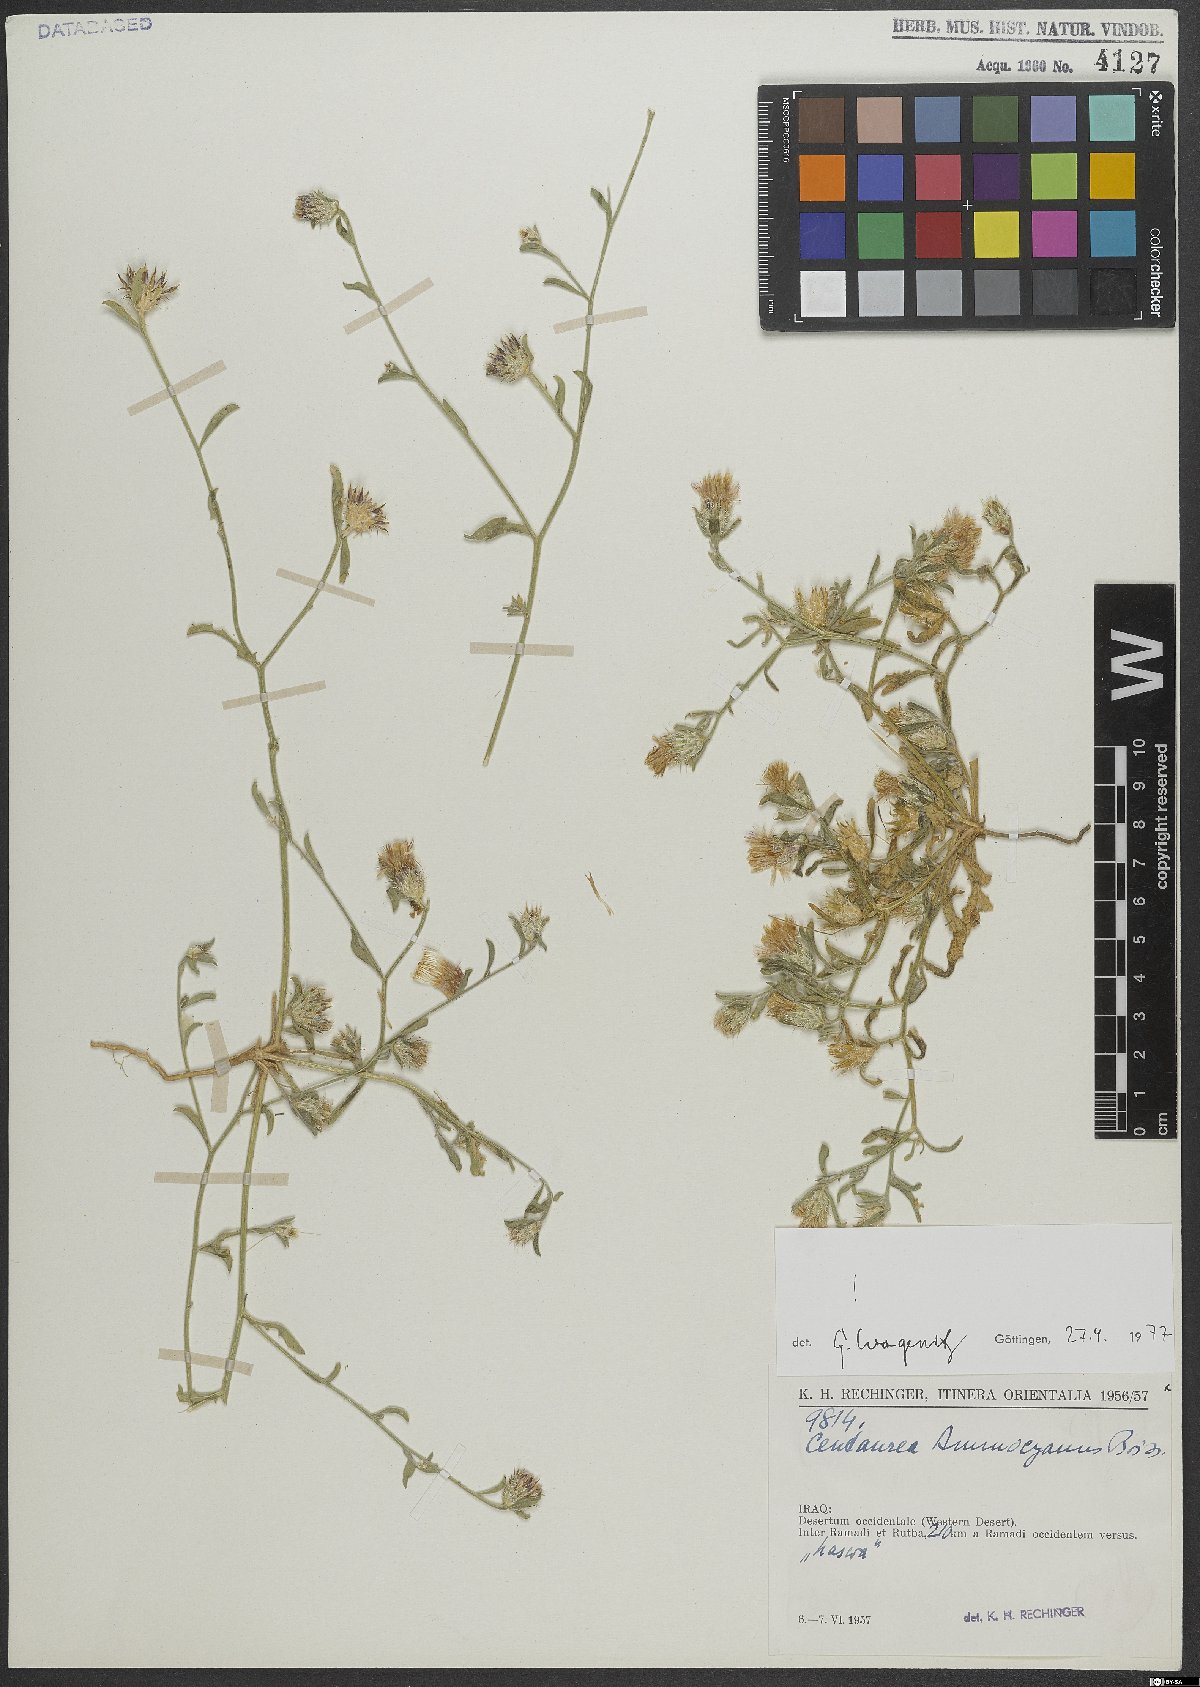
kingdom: Plantae
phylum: Tracheophyta
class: Magnoliopsida
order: Asterales
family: Asteraceae
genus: Centaurea
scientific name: Centaurea ammocyanus
